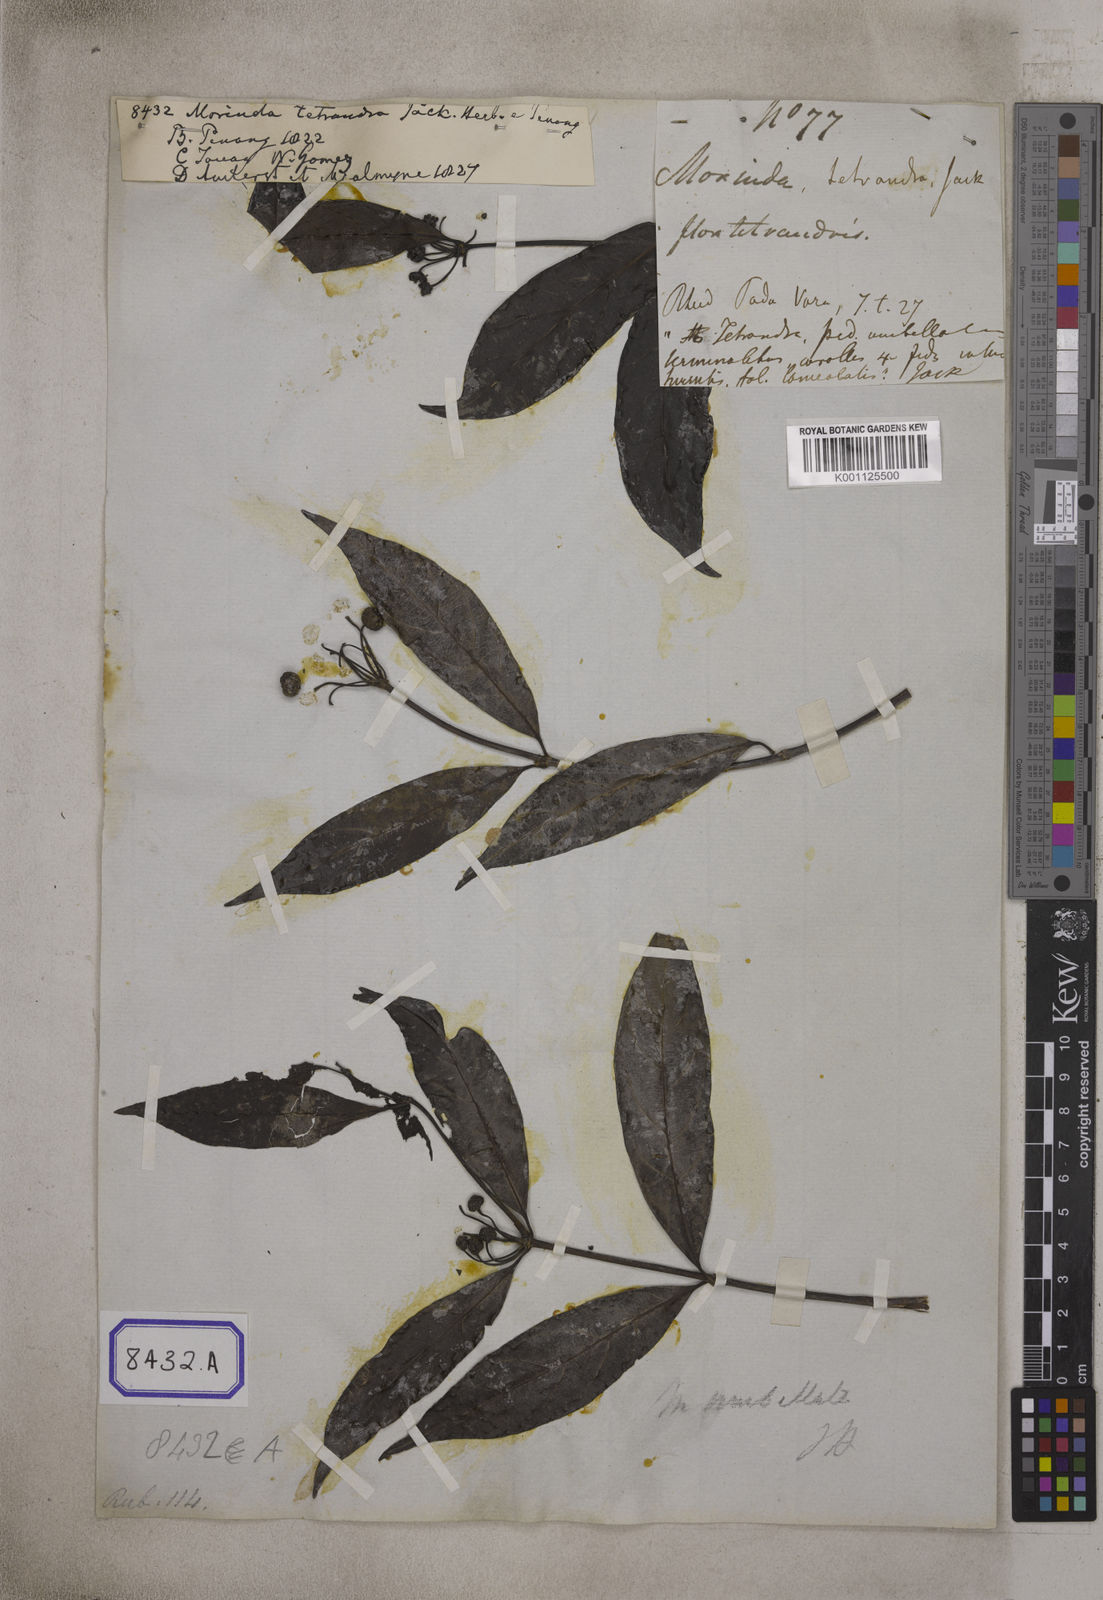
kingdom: Plantae
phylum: Tracheophyta
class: Magnoliopsida
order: Gentianales
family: Rubiaceae
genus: Gynochthodes
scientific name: Gynochthodes umbellata
